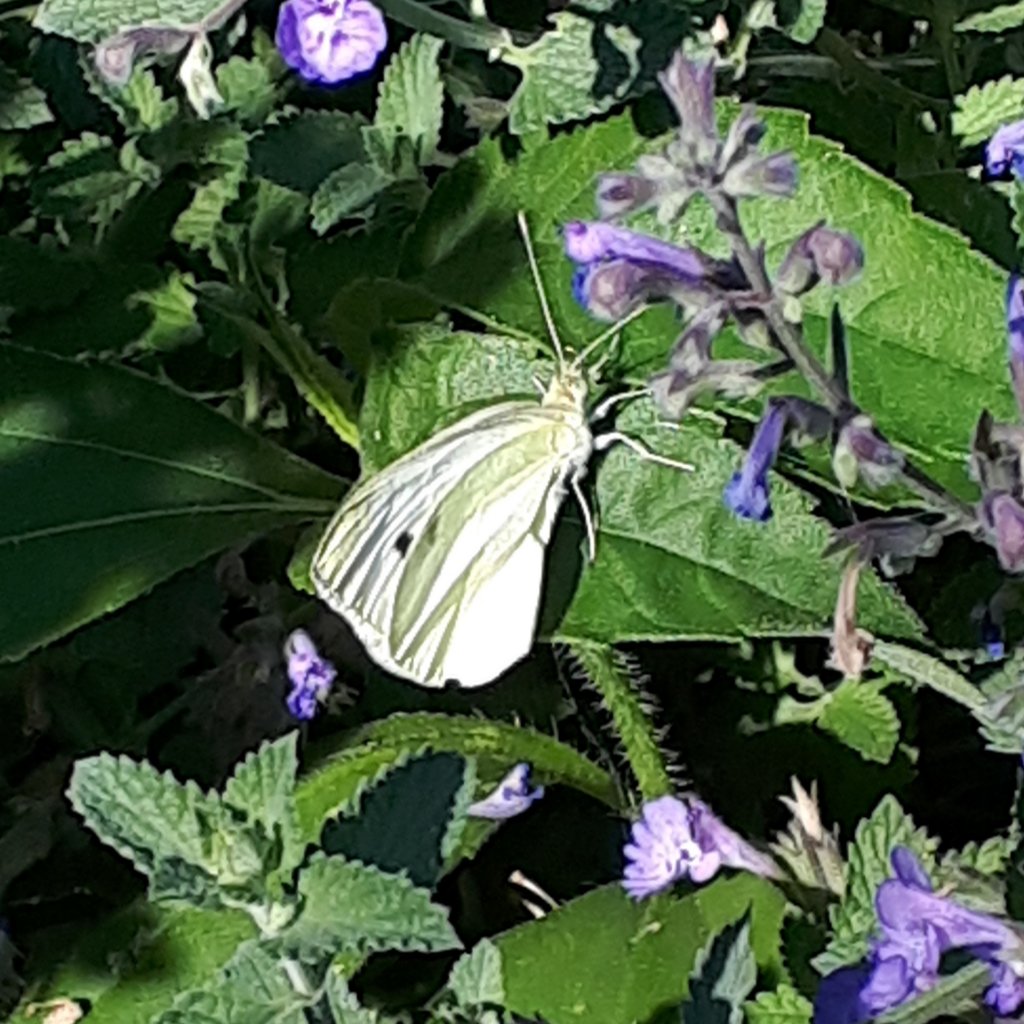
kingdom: Animalia
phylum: Arthropoda
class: Insecta
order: Lepidoptera
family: Pieridae
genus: Pieris
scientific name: Pieris rapae
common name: Cabbage White
